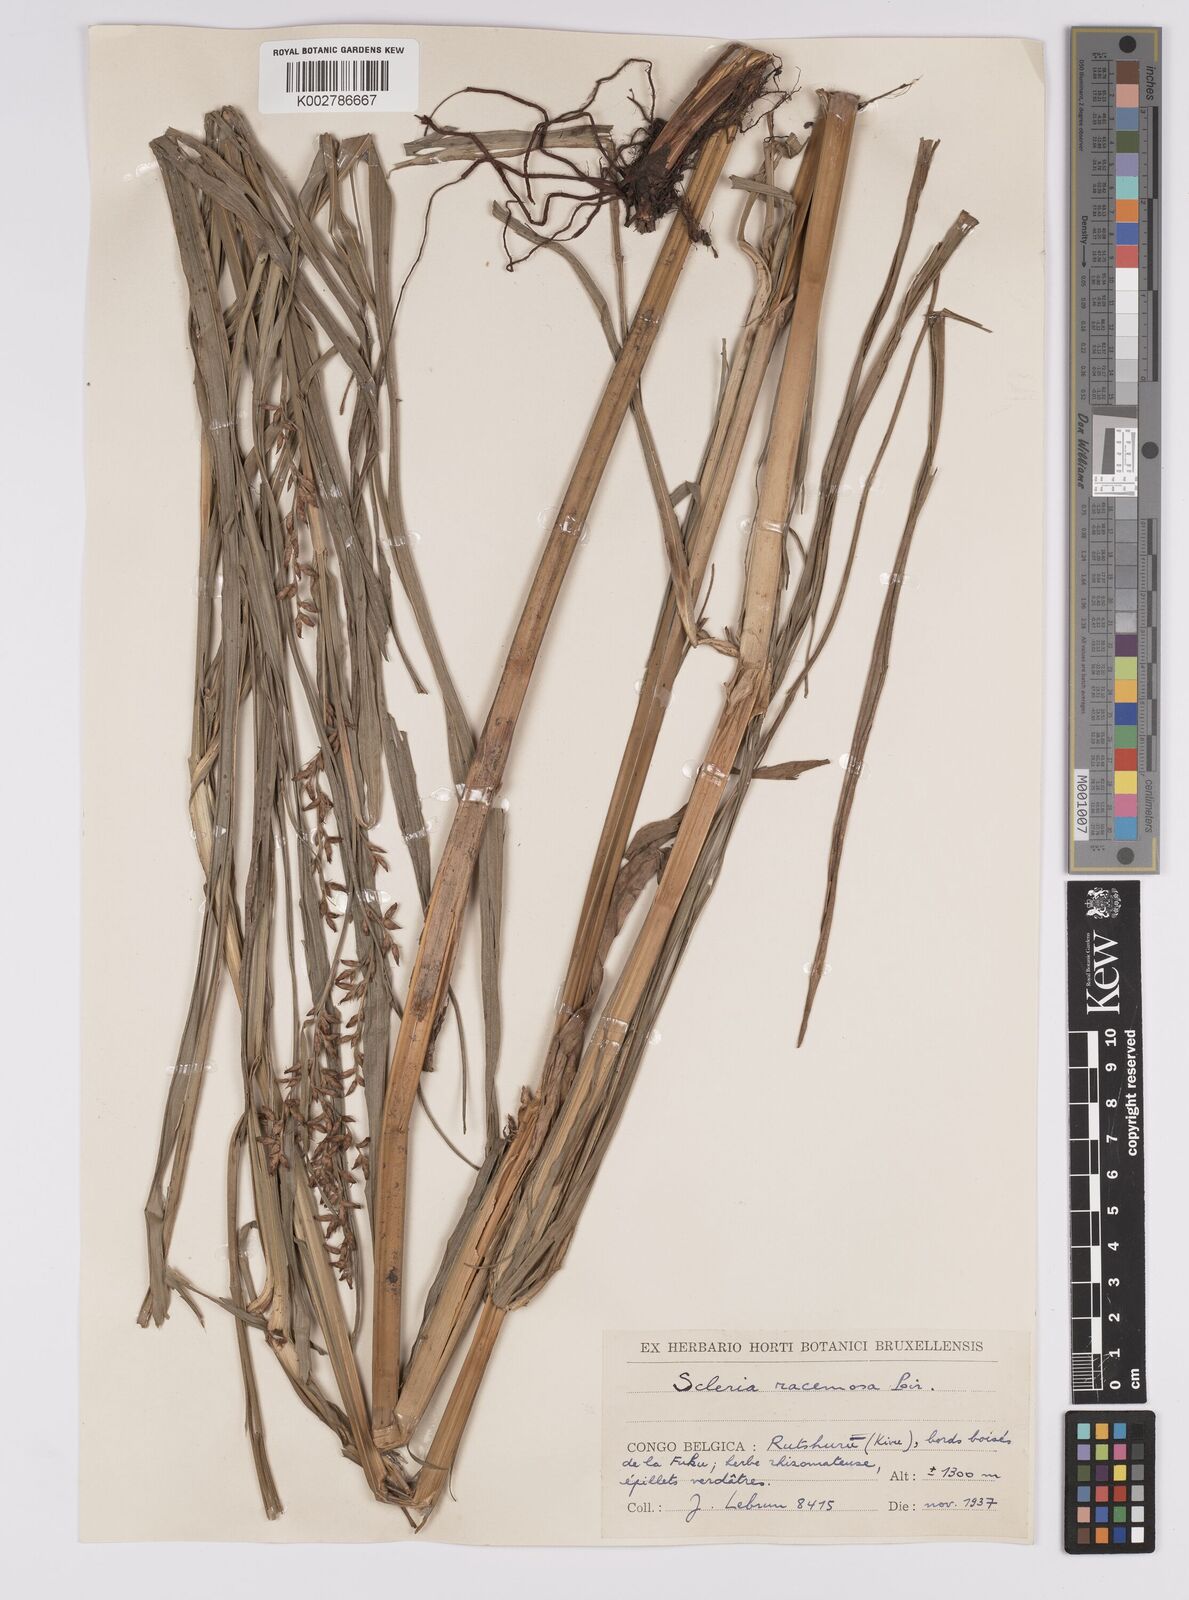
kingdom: Plantae
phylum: Tracheophyta
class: Liliopsida
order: Poales
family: Cyperaceae
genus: Scleria
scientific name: Scleria racemosa
